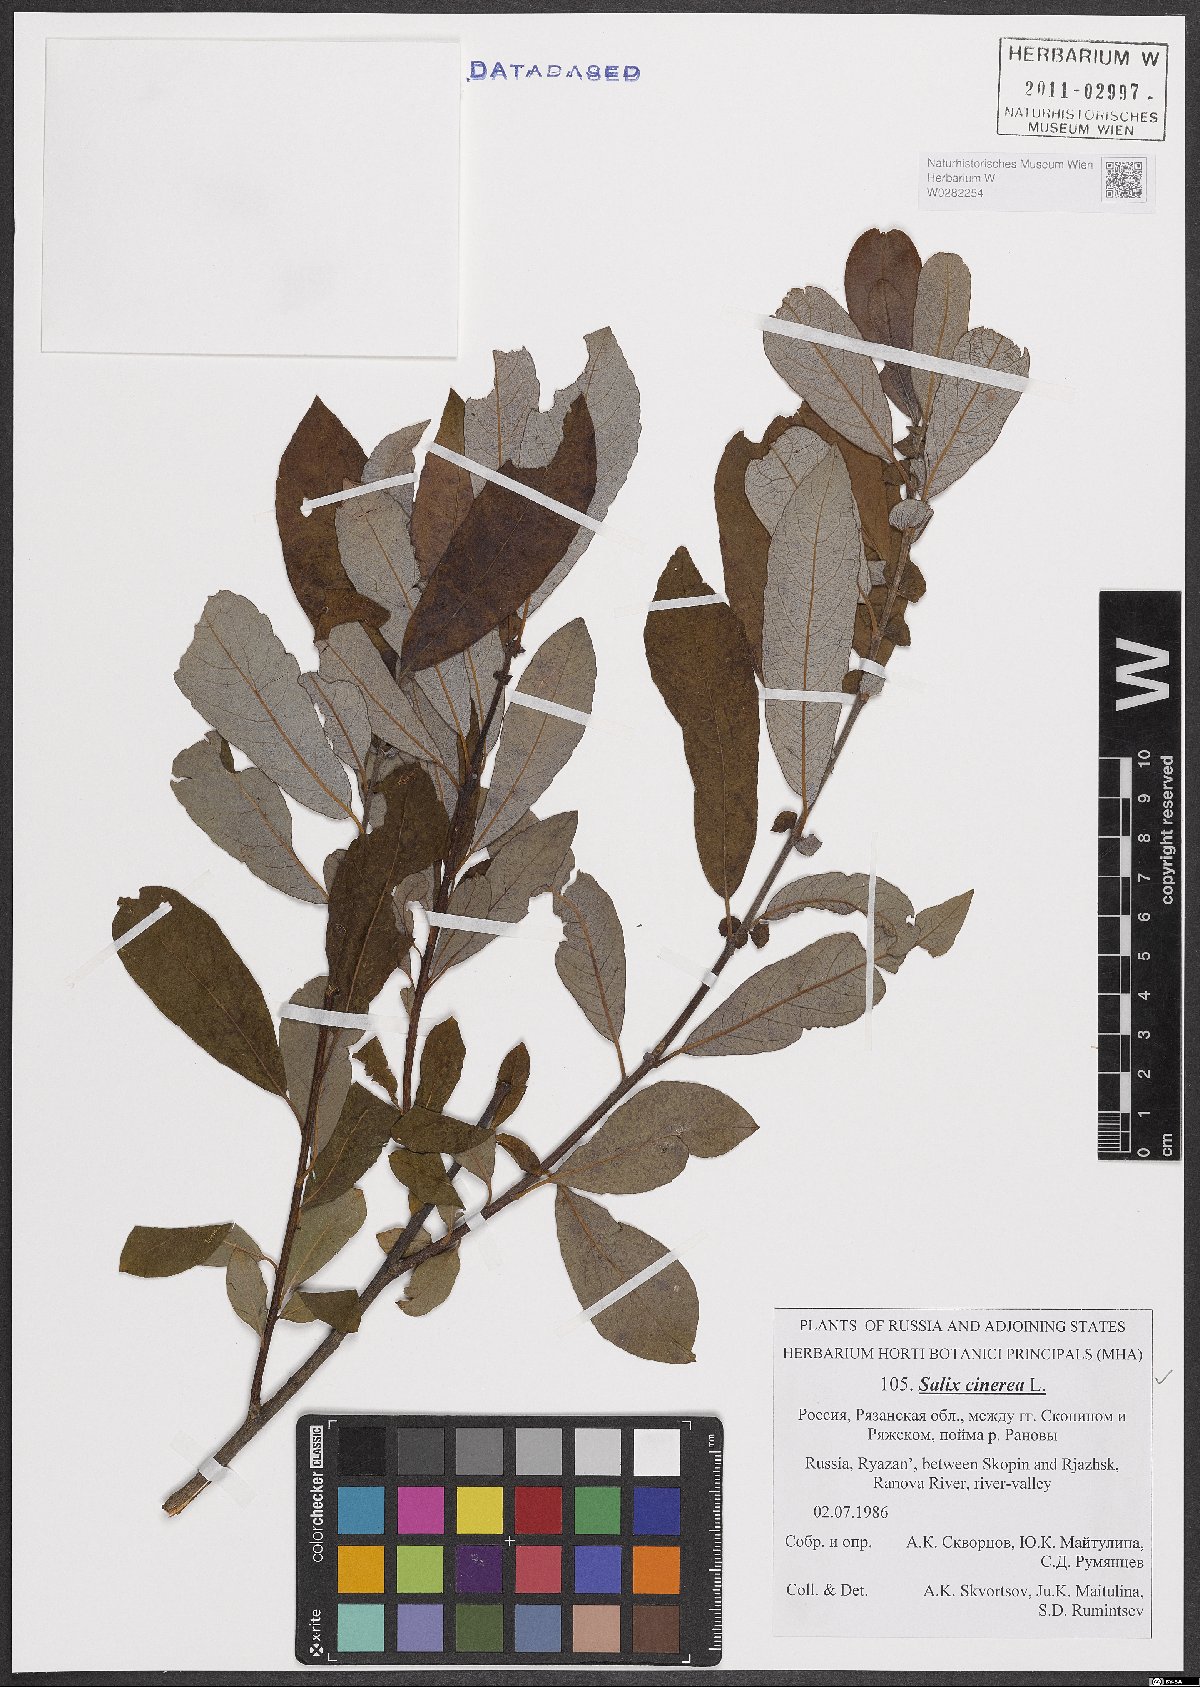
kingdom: Plantae
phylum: Tracheophyta
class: Magnoliopsida
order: Malpighiales
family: Salicaceae
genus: Salix
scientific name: Salix cinerea
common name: Common sallow
